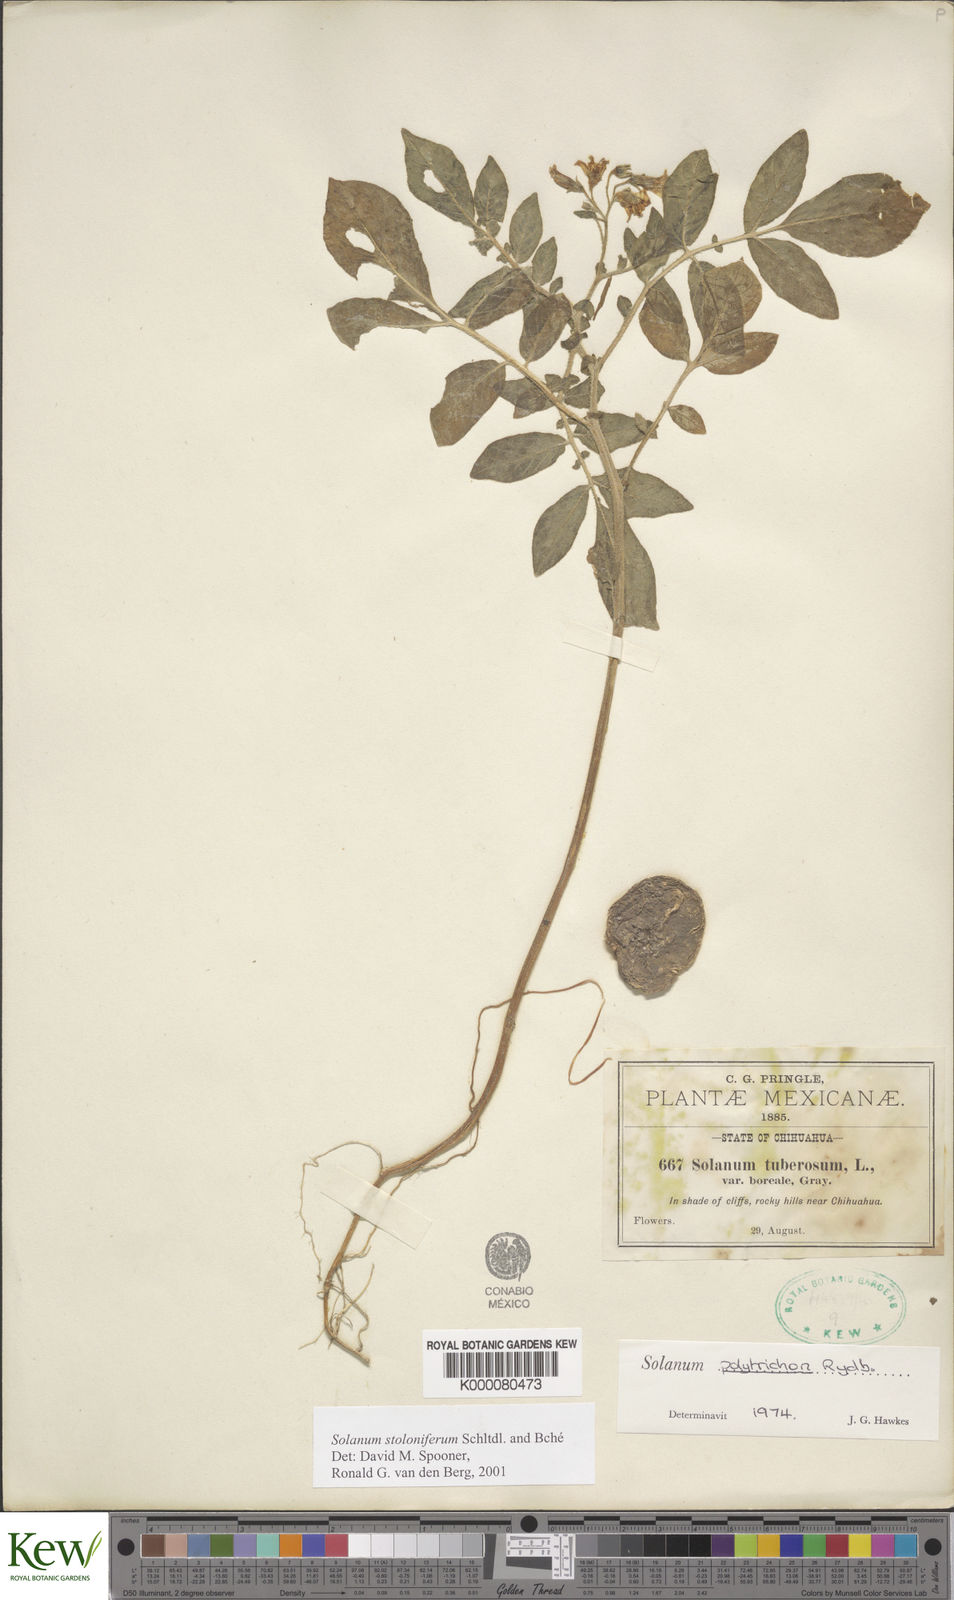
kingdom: Plantae
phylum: Tracheophyta
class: Magnoliopsida
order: Solanales
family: Solanaceae
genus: Solanum
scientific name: Solanum stoloniferum
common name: Fendler's nighshade
